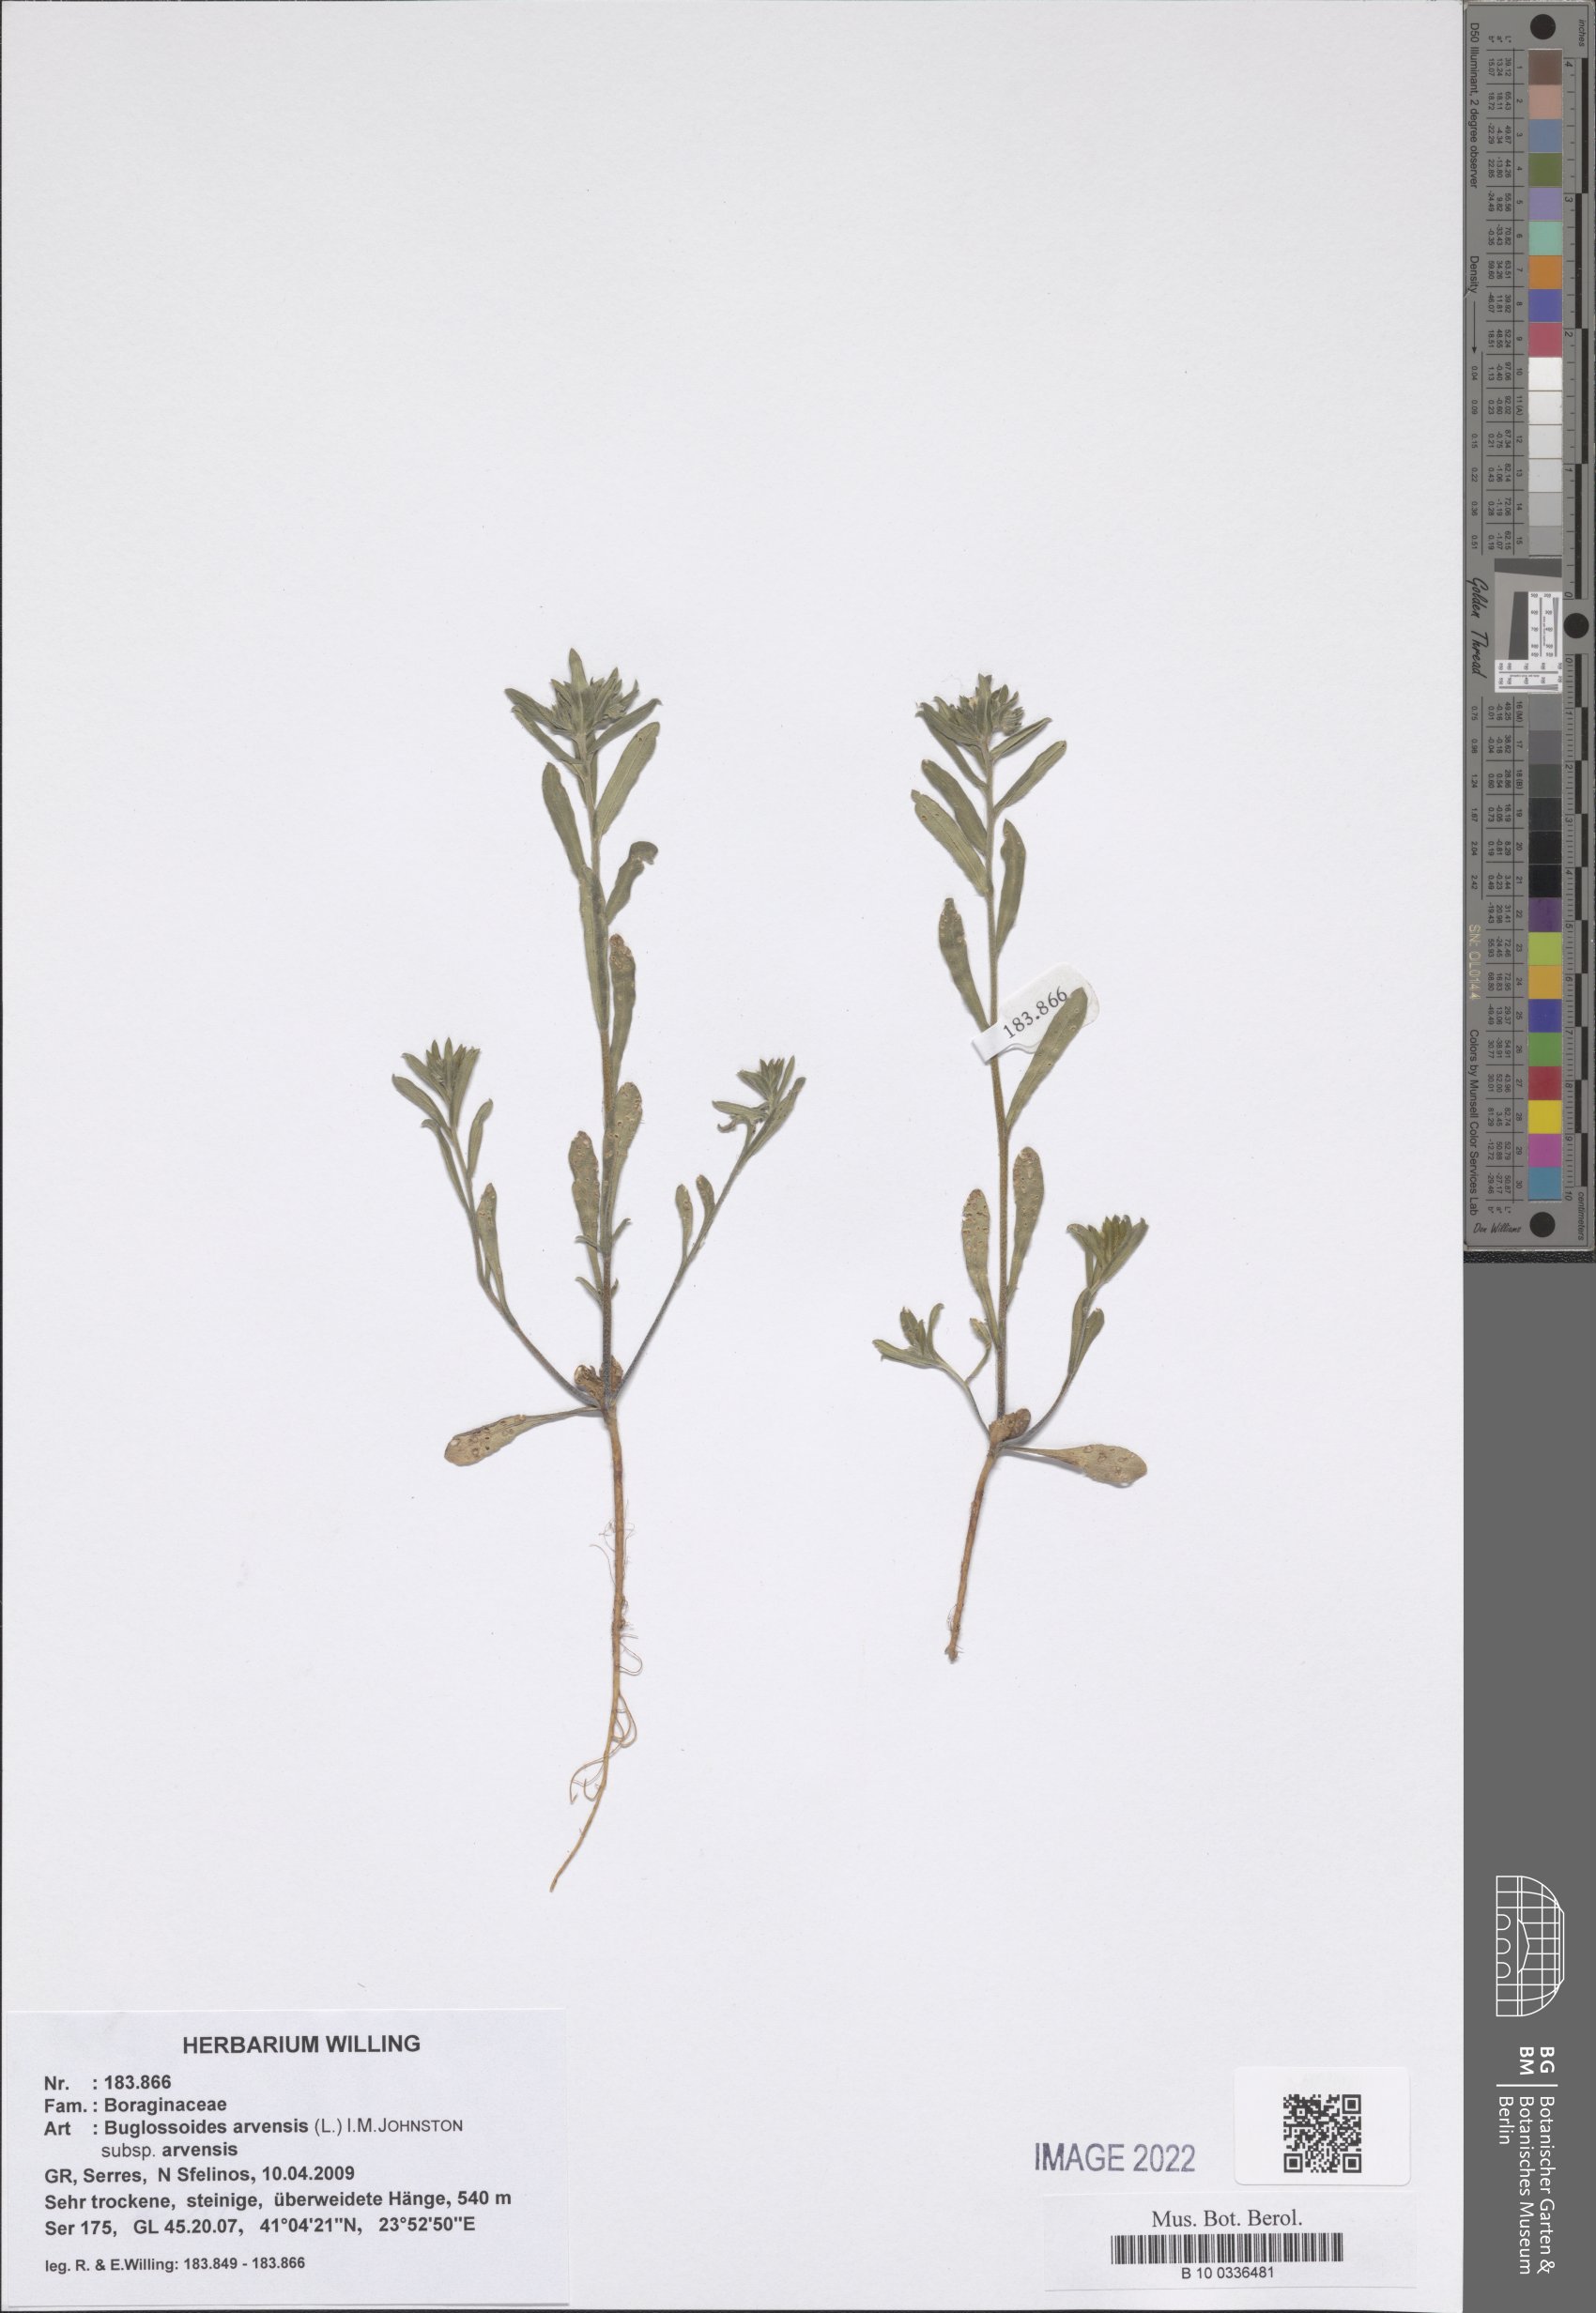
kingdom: Plantae
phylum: Tracheophyta
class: Magnoliopsida
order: Boraginales
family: Boraginaceae
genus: Buglossoides
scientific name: Buglossoides arvensis
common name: Corn gromwell
